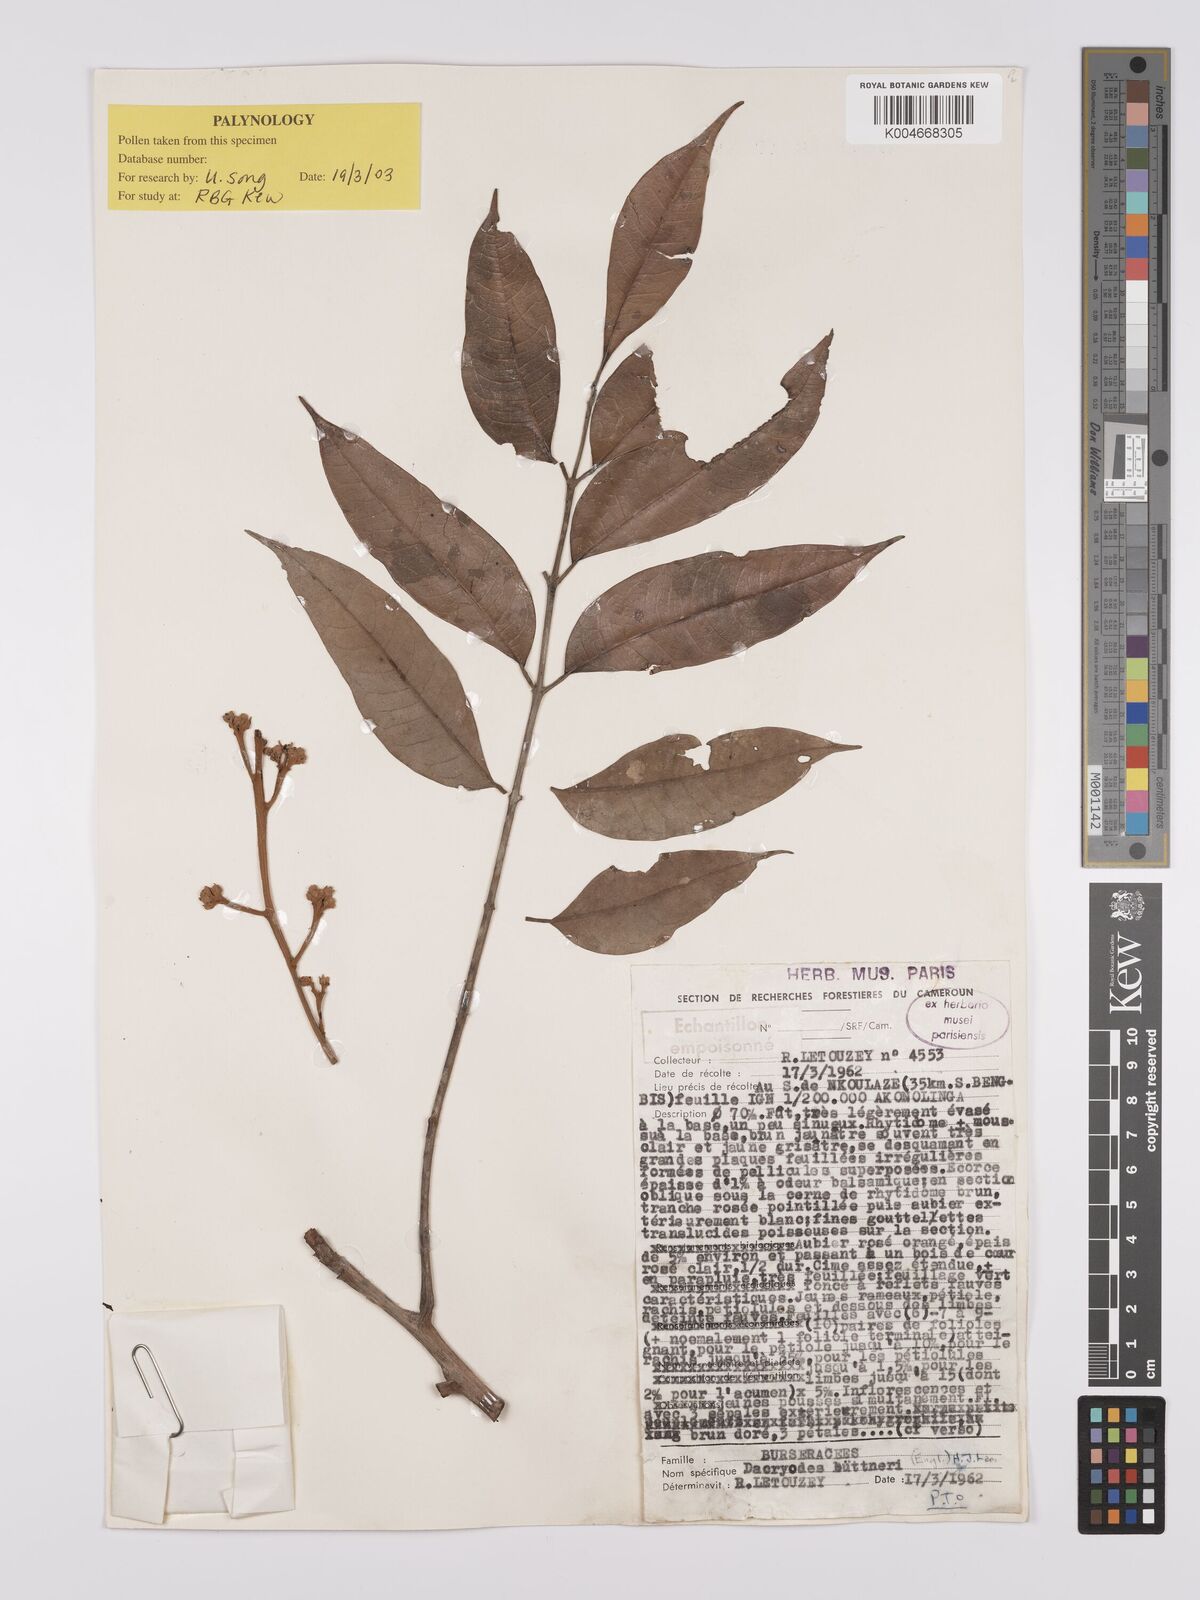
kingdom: Plantae
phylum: Tracheophyta
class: Magnoliopsida
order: Sapindales
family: Burseraceae
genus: Pachylobus
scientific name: Pachylobus buettneri
